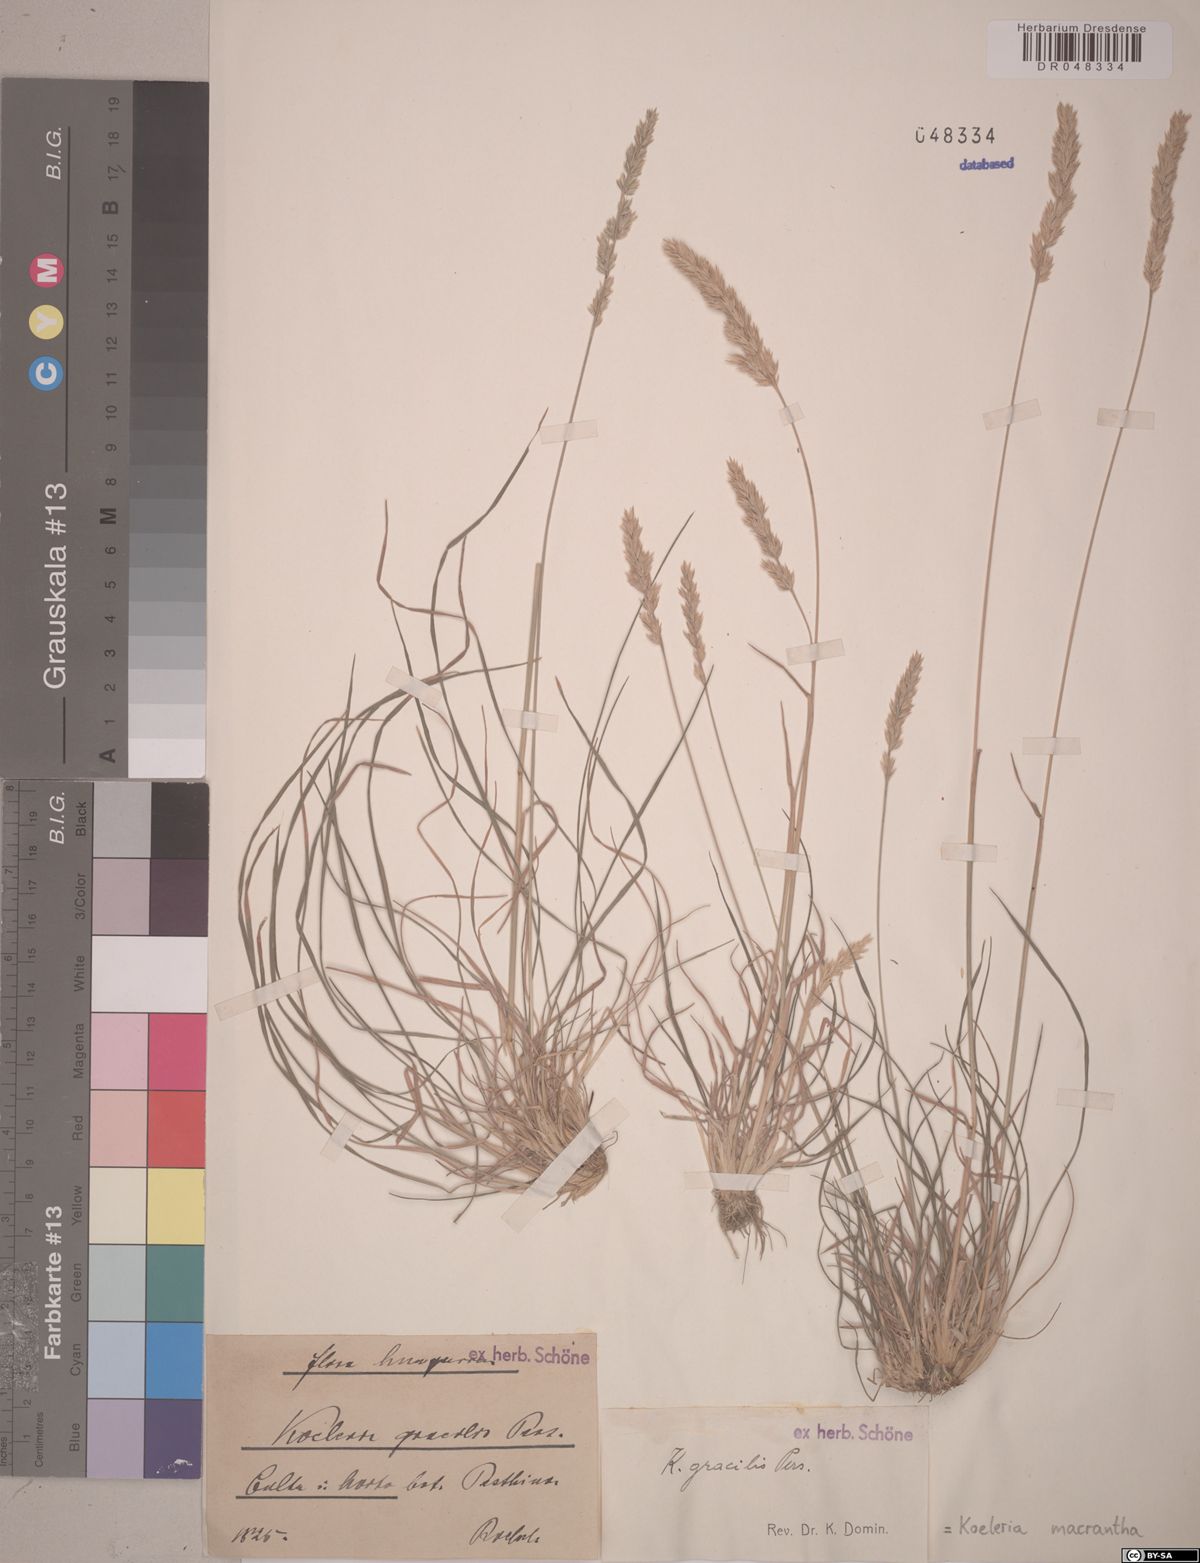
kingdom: Plantae
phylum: Tracheophyta
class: Liliopsida
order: Poales
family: Poaceae
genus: Koeleria
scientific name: Koeleria macrantha
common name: Crested hair-grass
